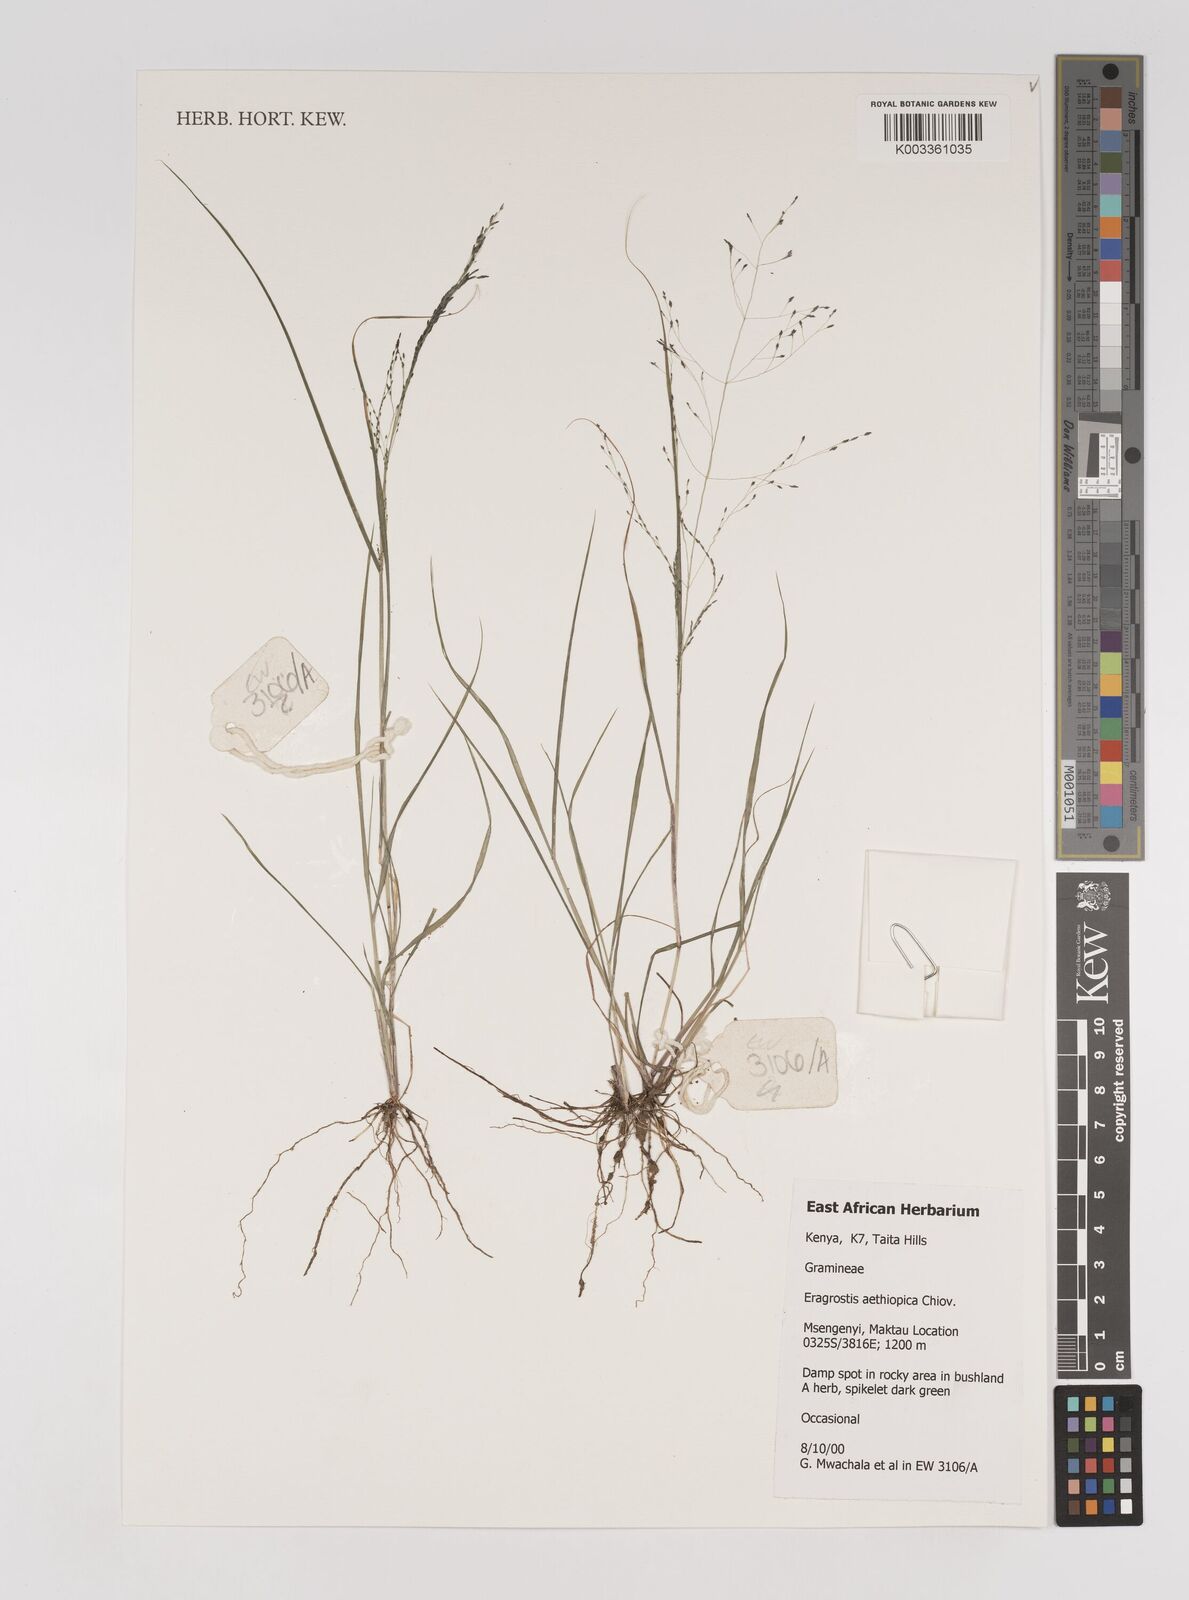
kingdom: Plantae
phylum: Tracheophyta
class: Liliopsida
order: Poales
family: Poaceae
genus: Eragrostis
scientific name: Eragrostis aethiopica
